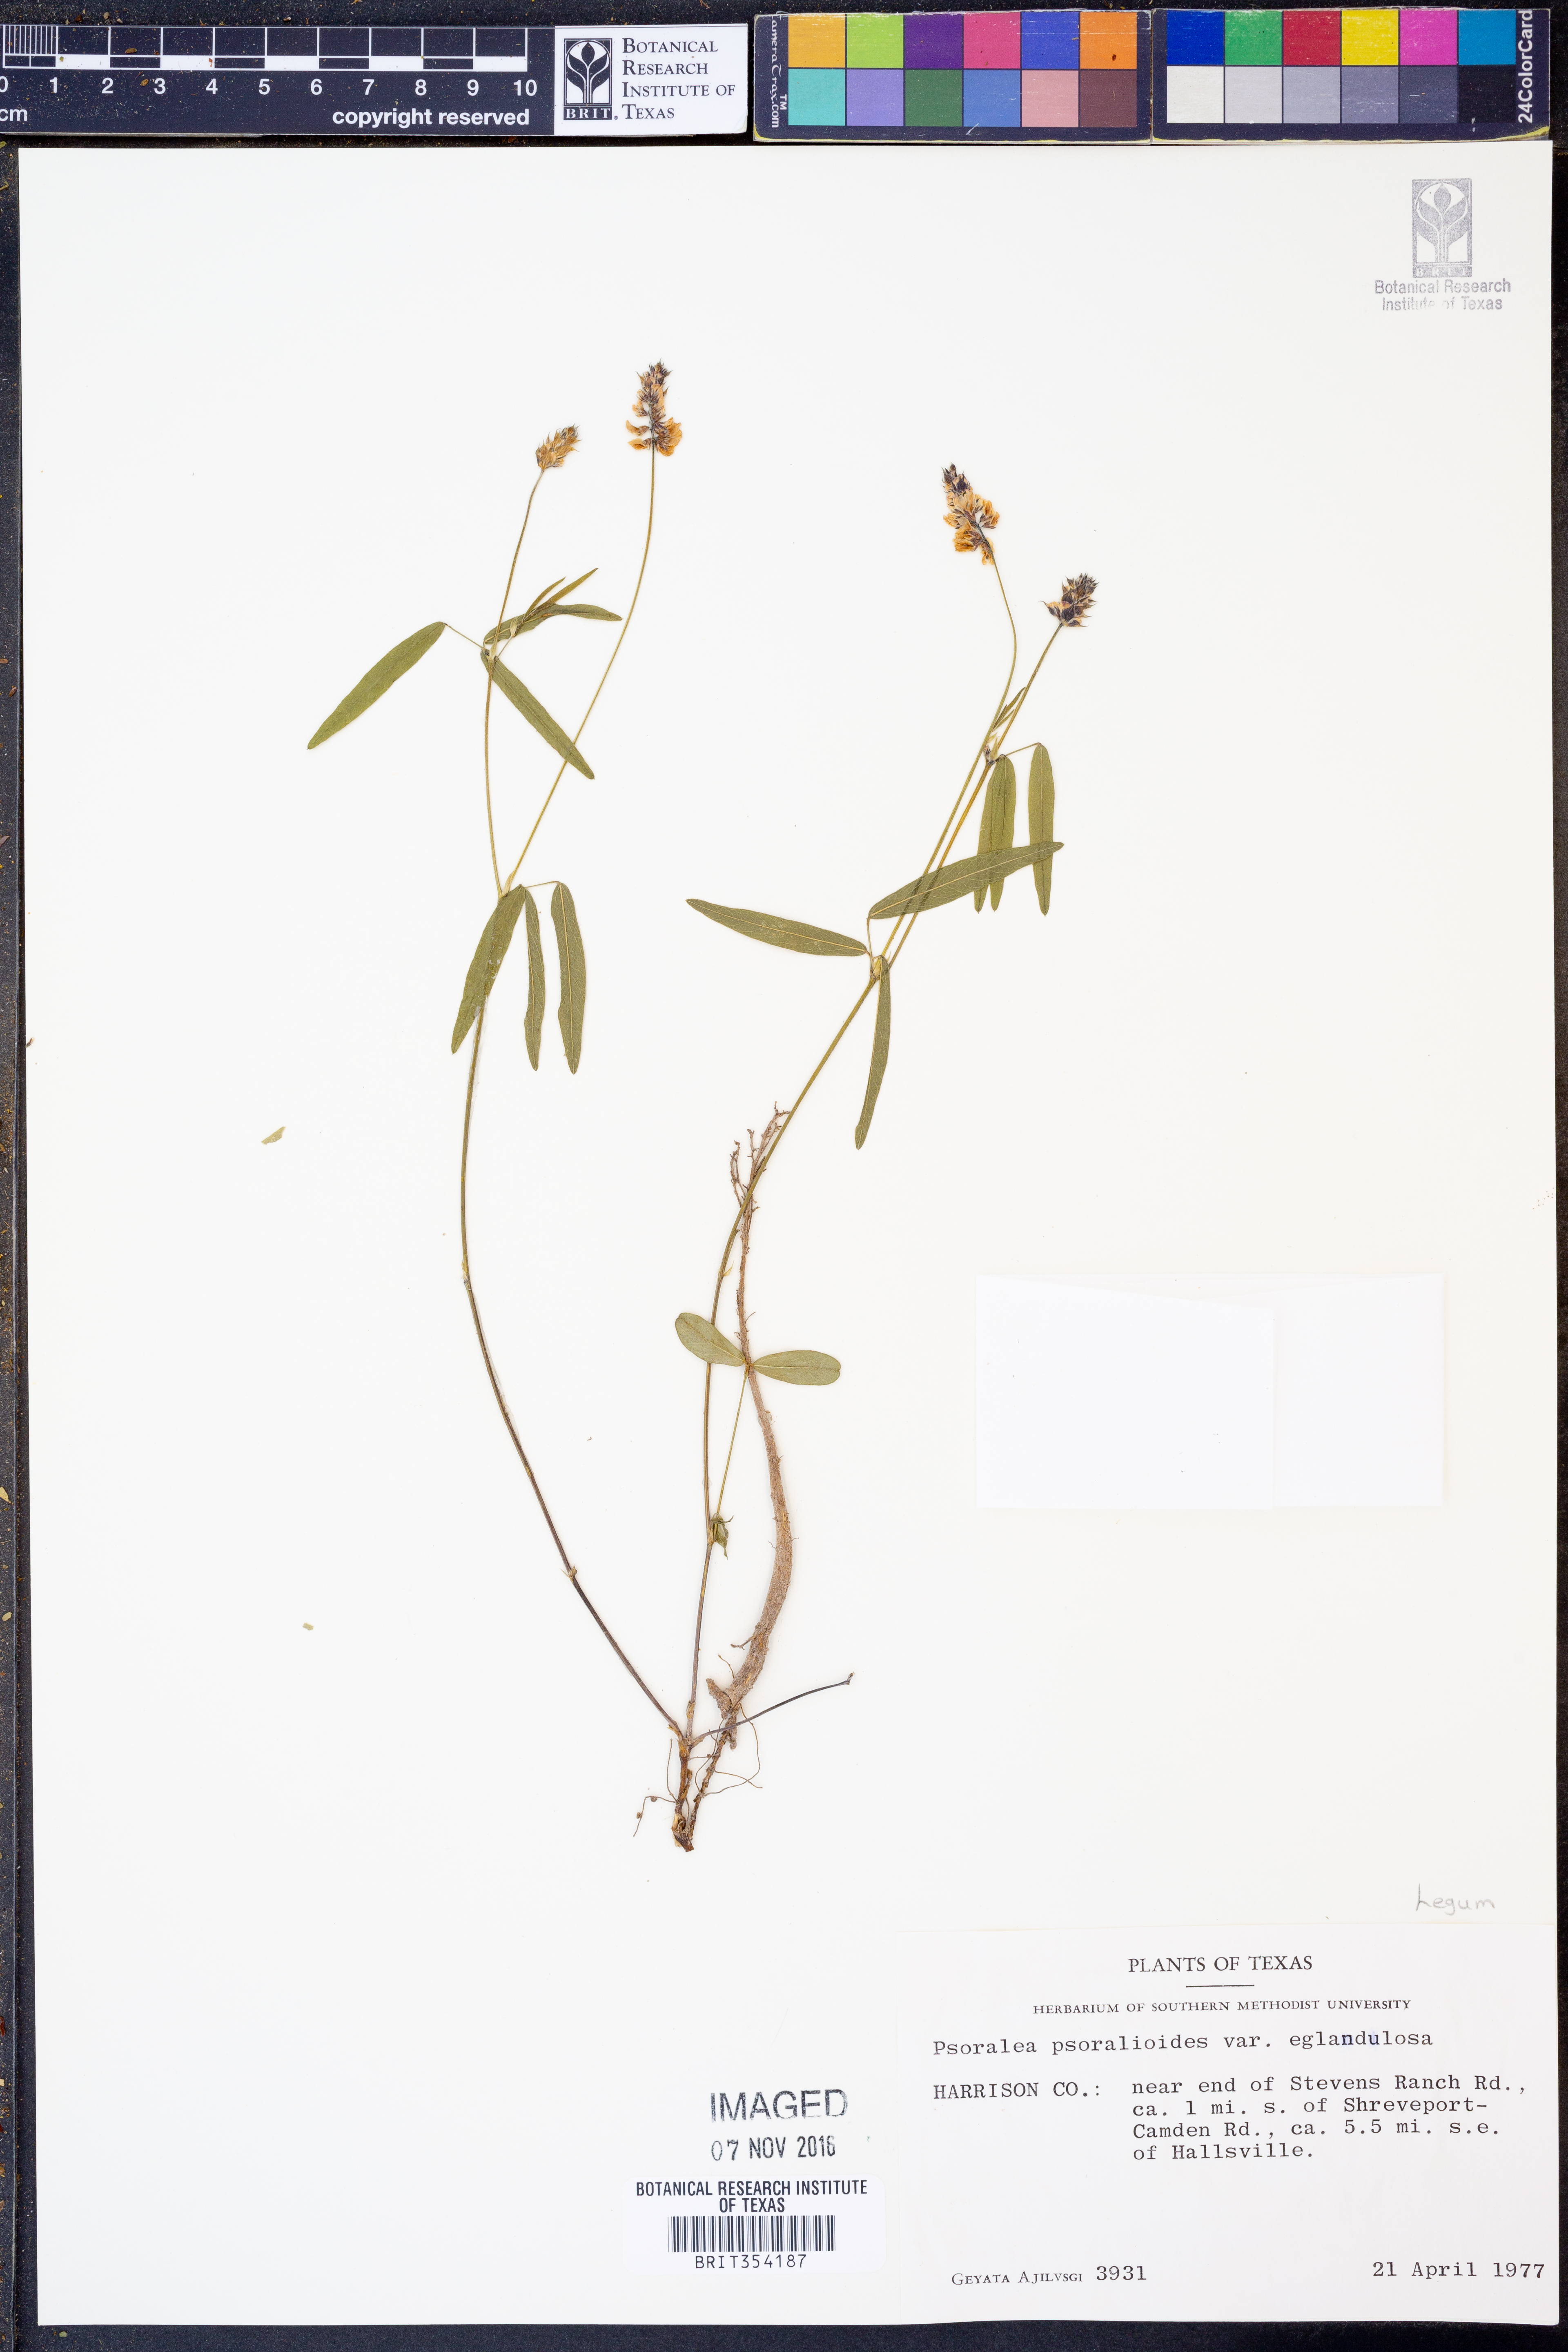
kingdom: Plantae
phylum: Tracheophyta
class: Magnoliopsida
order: Fabales
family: Fabaceae
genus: Orbexilum
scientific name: Orbexilum pedunculatum
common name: Sampson's snakeroot
